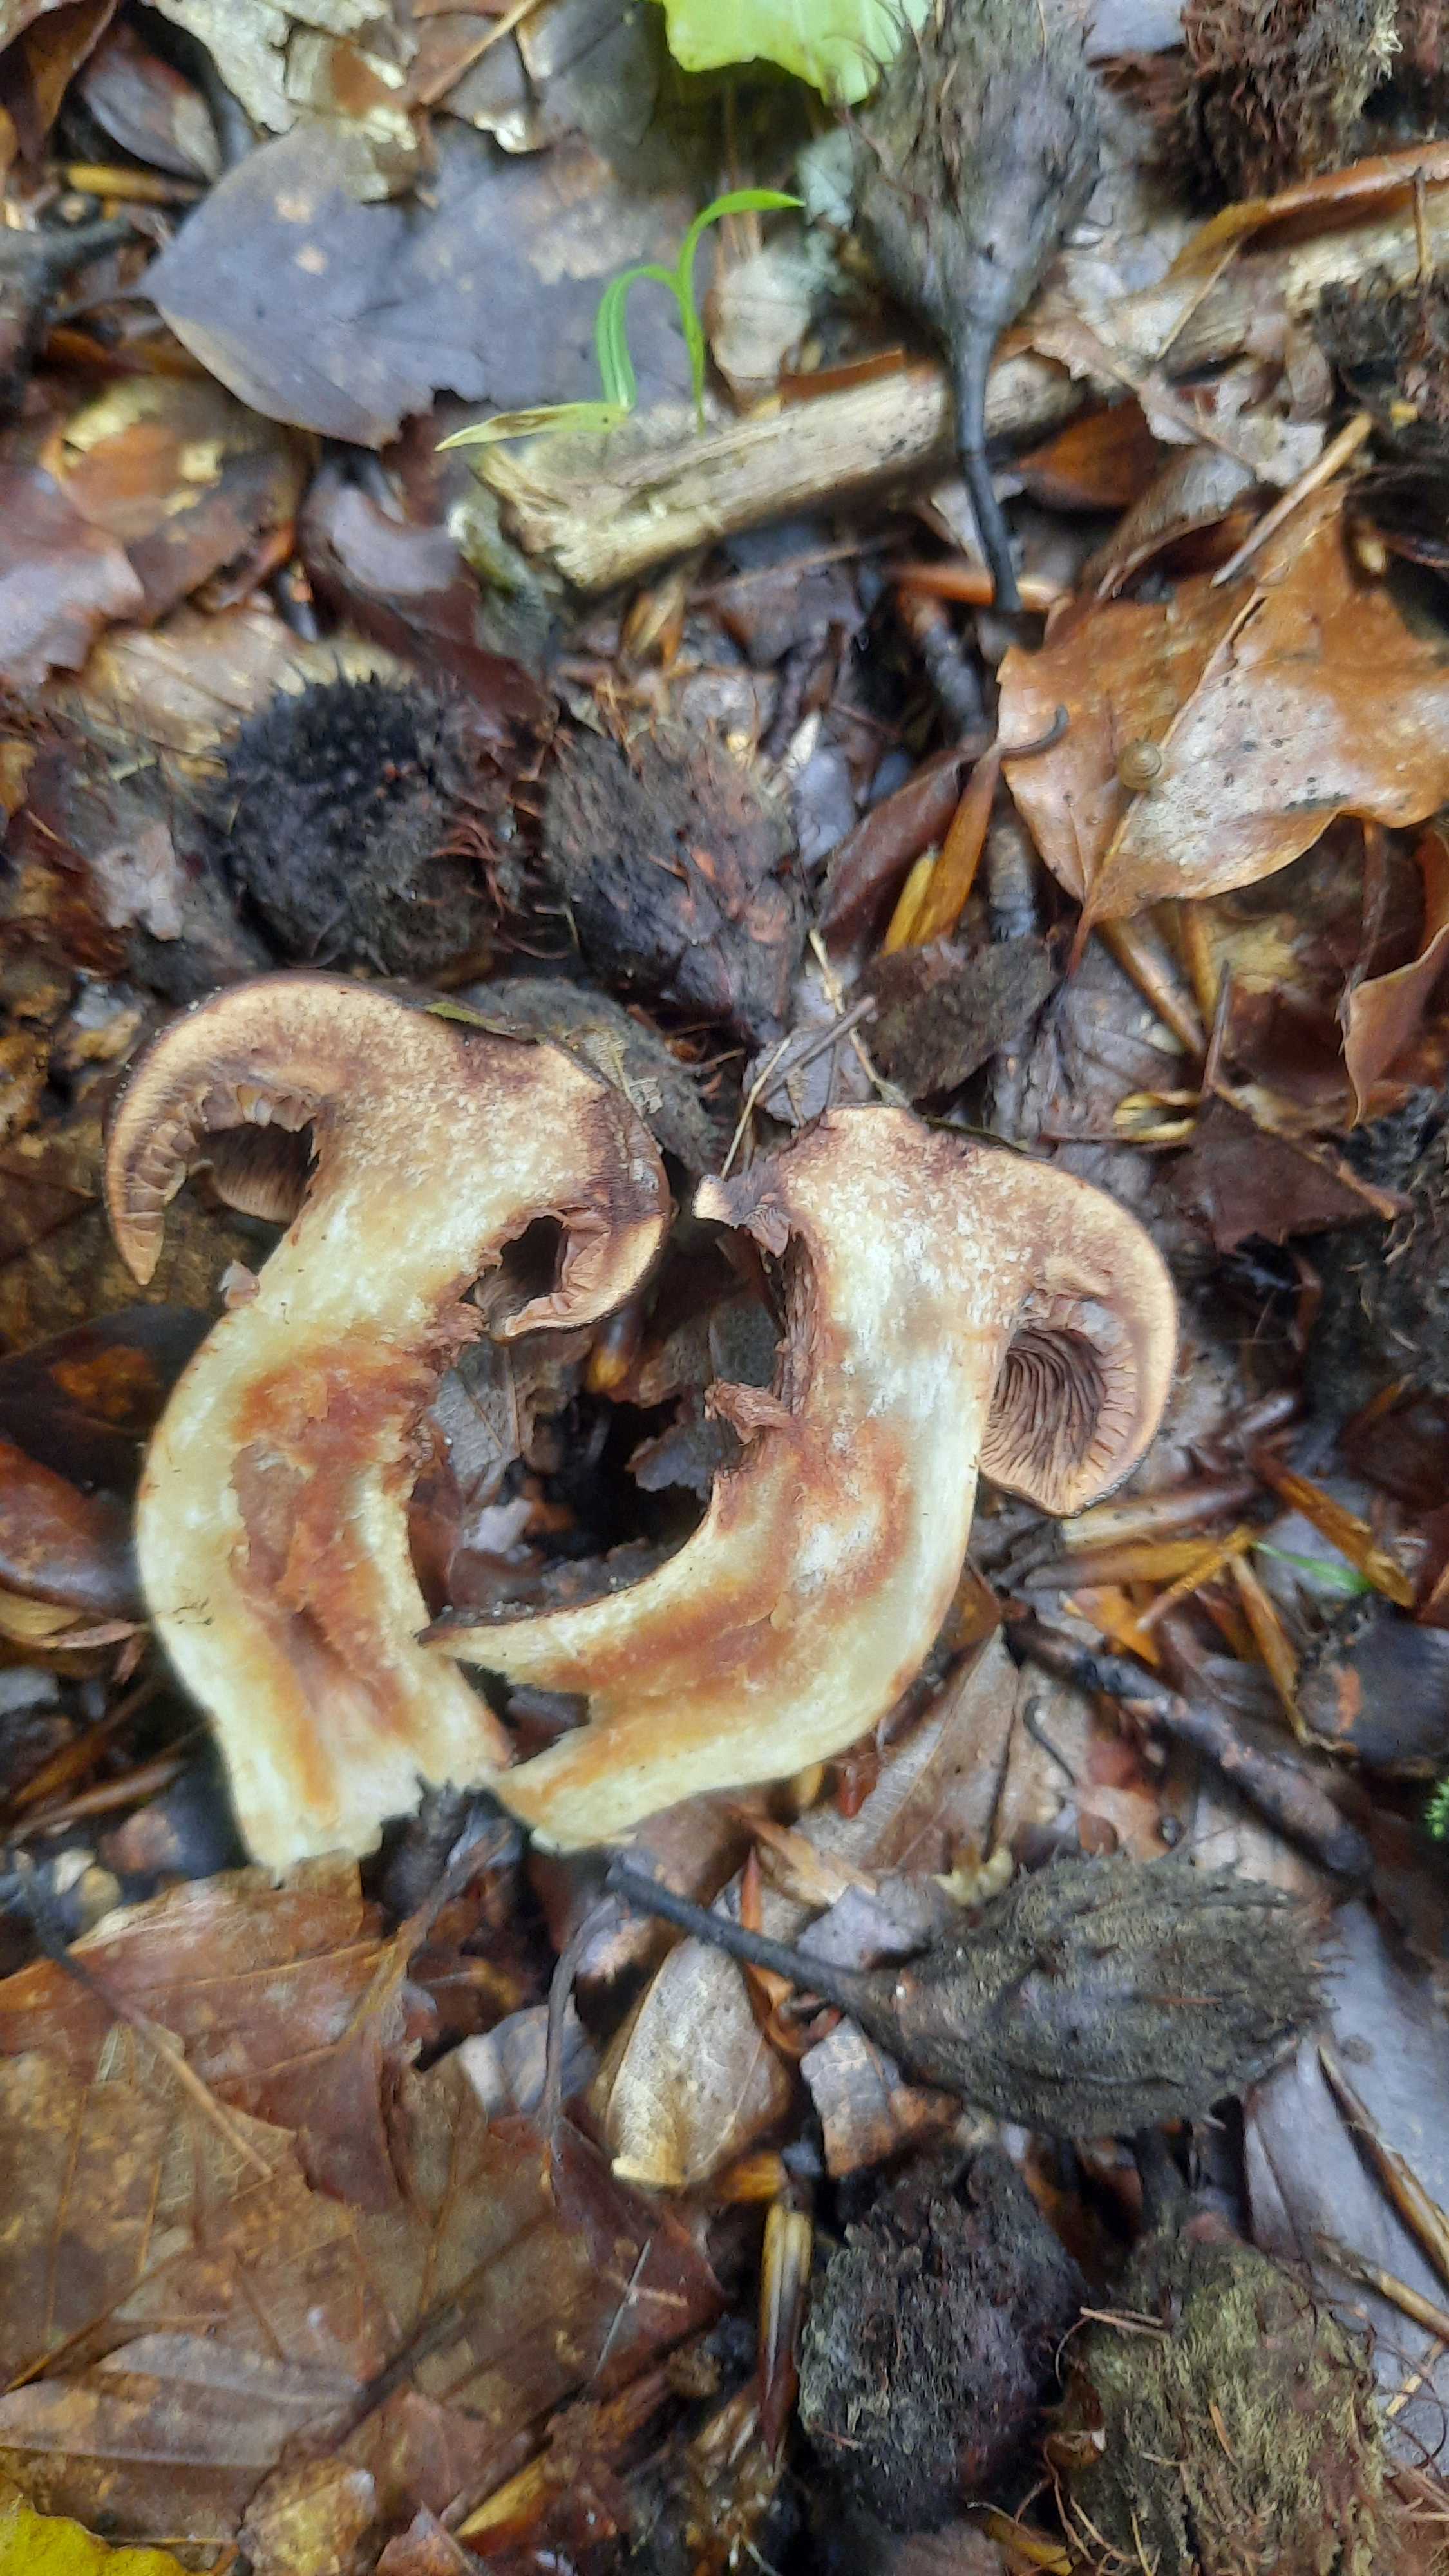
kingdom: Fungi
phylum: Basidiomycota
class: Agaricomycetes
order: Agaricales
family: Tricholomataceae
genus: Tricholoma
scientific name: Tricholoma ustale
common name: sveden ridderhat
